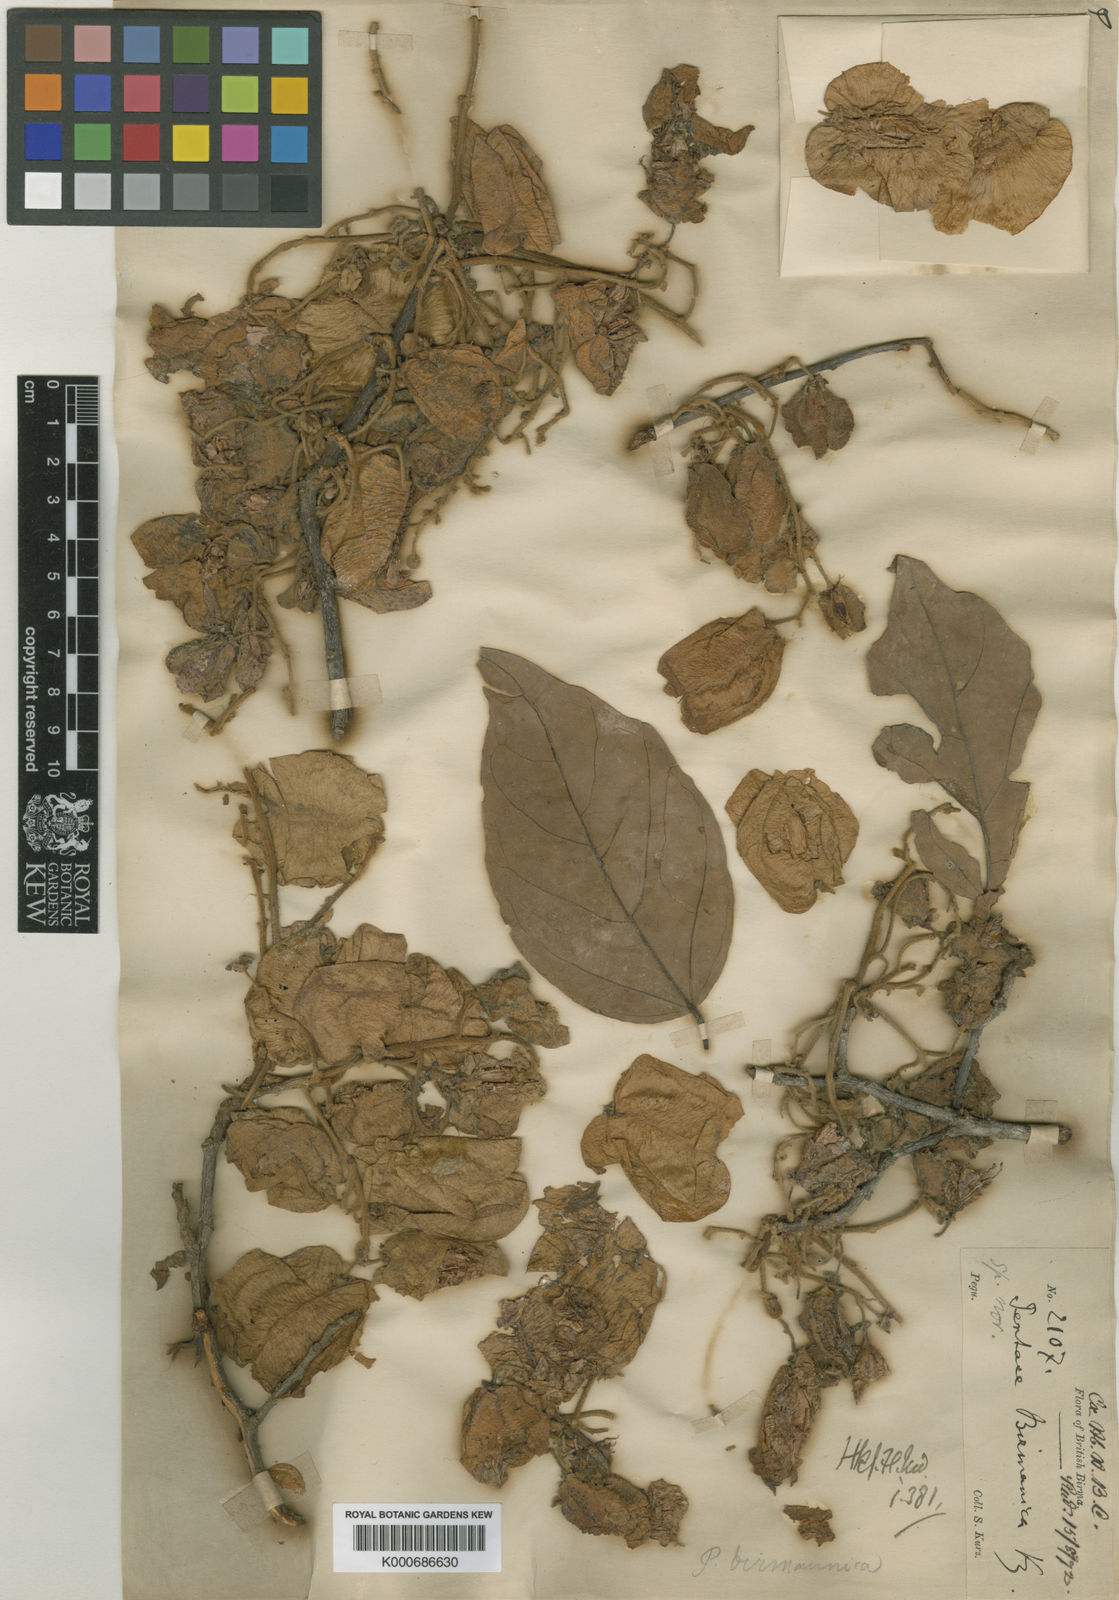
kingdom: Plantae
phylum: Tracheophyta
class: Magnoliopsida
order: Malvales
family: Malvaceae
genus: Pentace
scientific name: Pentace burmanica
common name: Burmese-mahogany
